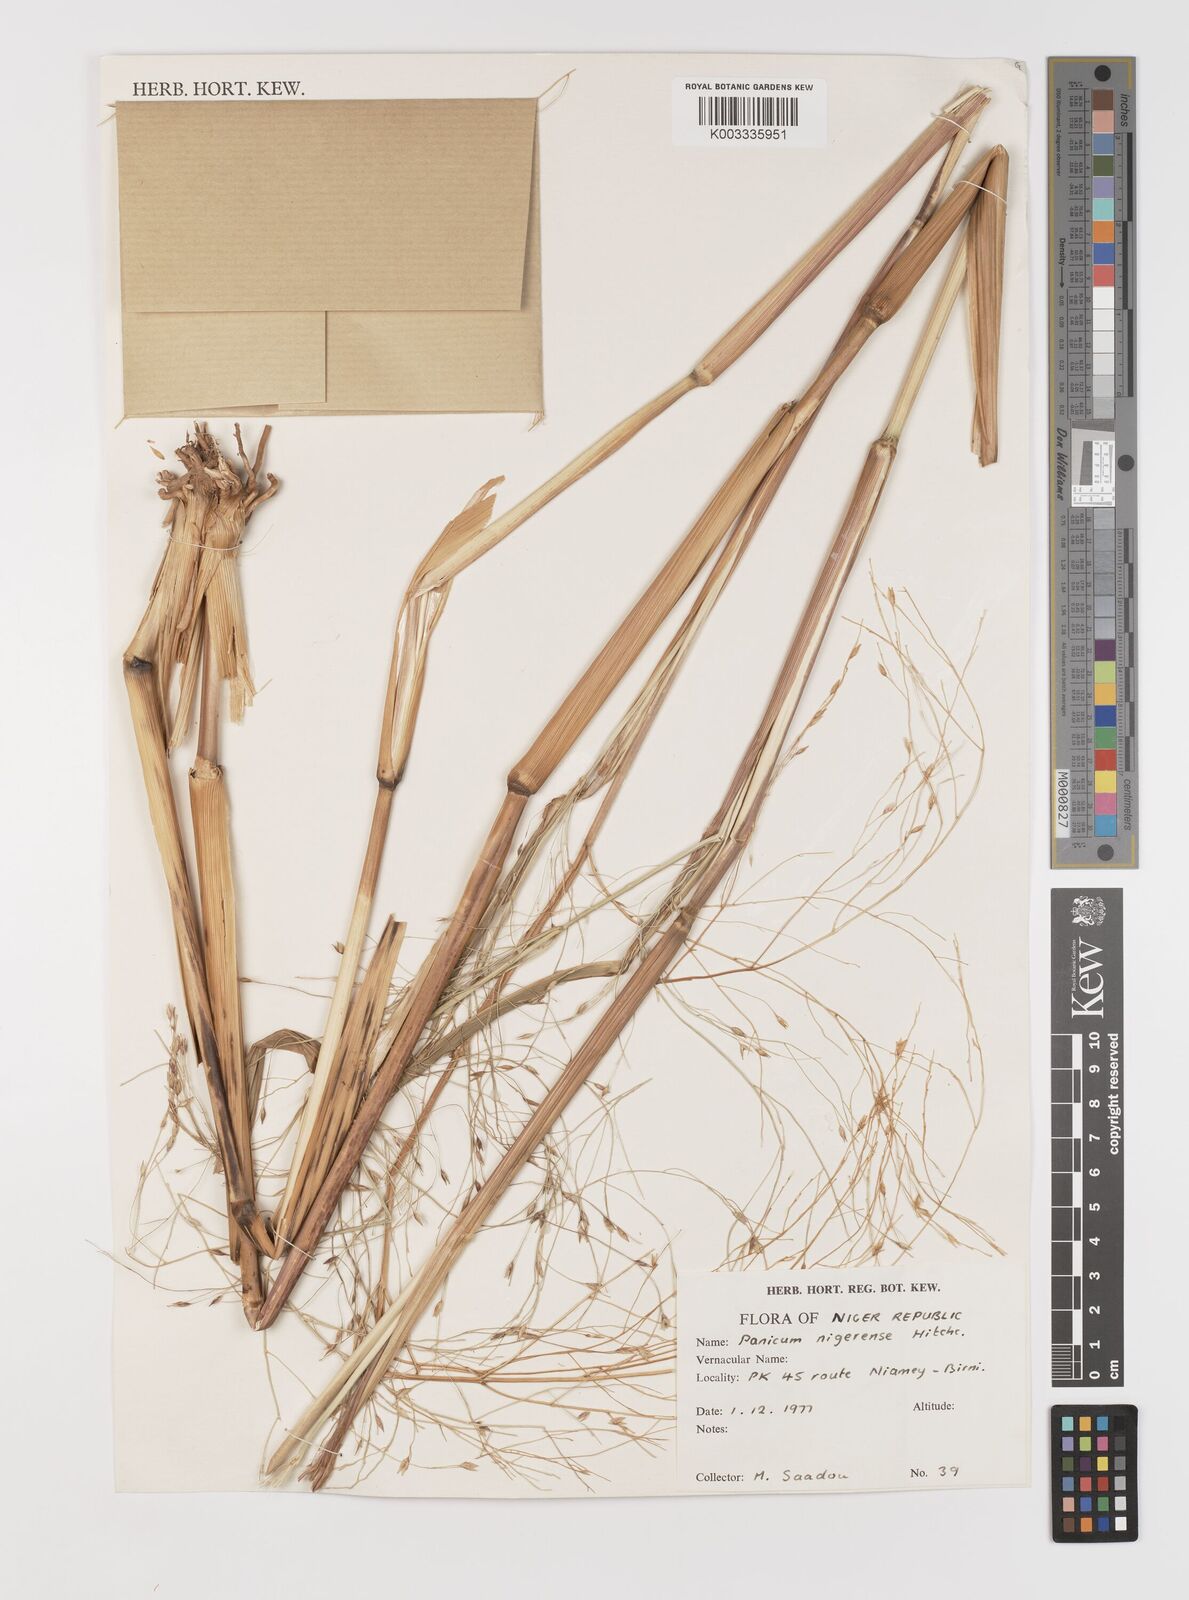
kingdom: Plantae
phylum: Tracheophyta
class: Liliopsida
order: Poales
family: Poaceae
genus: Panicum
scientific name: Panicum nigerense
